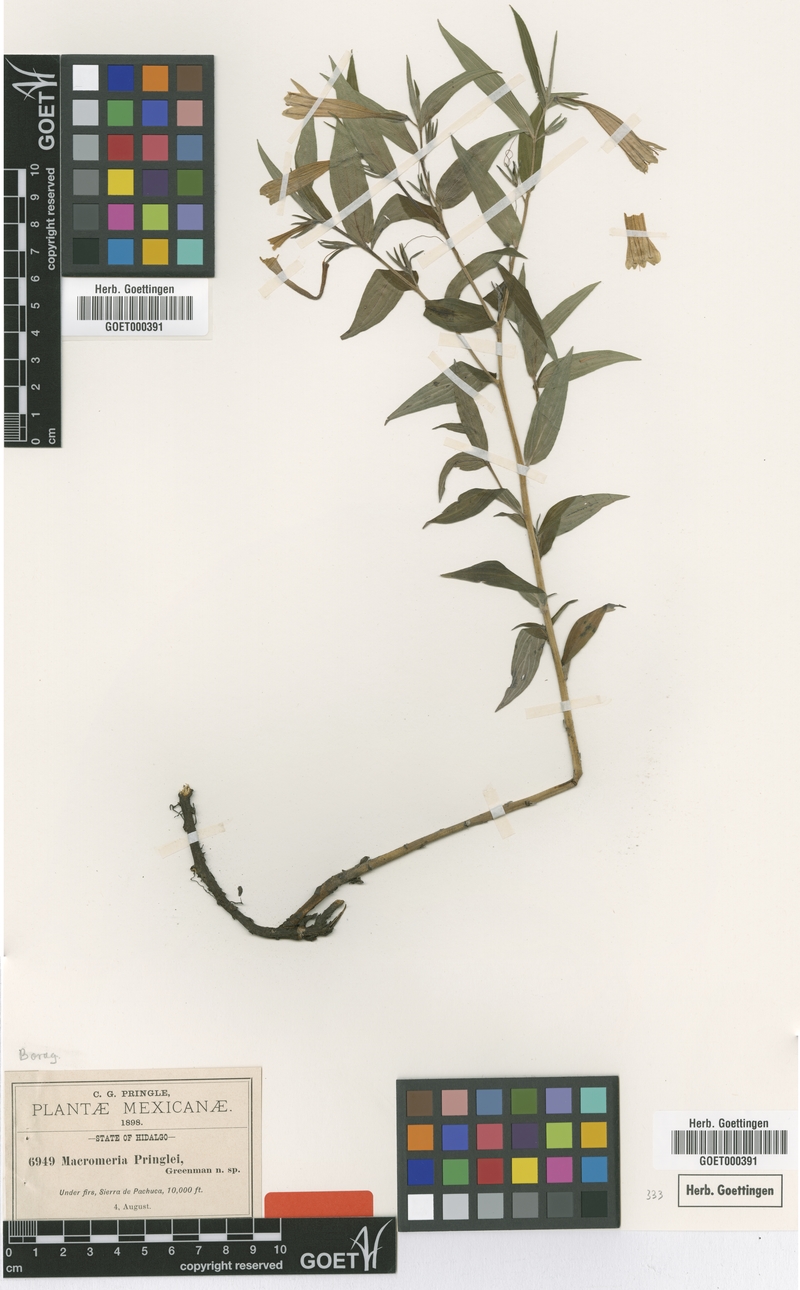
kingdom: Plantae
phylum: Tracheophyta
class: Magnoliopsida
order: Boraginales
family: Boraginaceae
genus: Lithospermum
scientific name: Lithospermum rzedowskii
